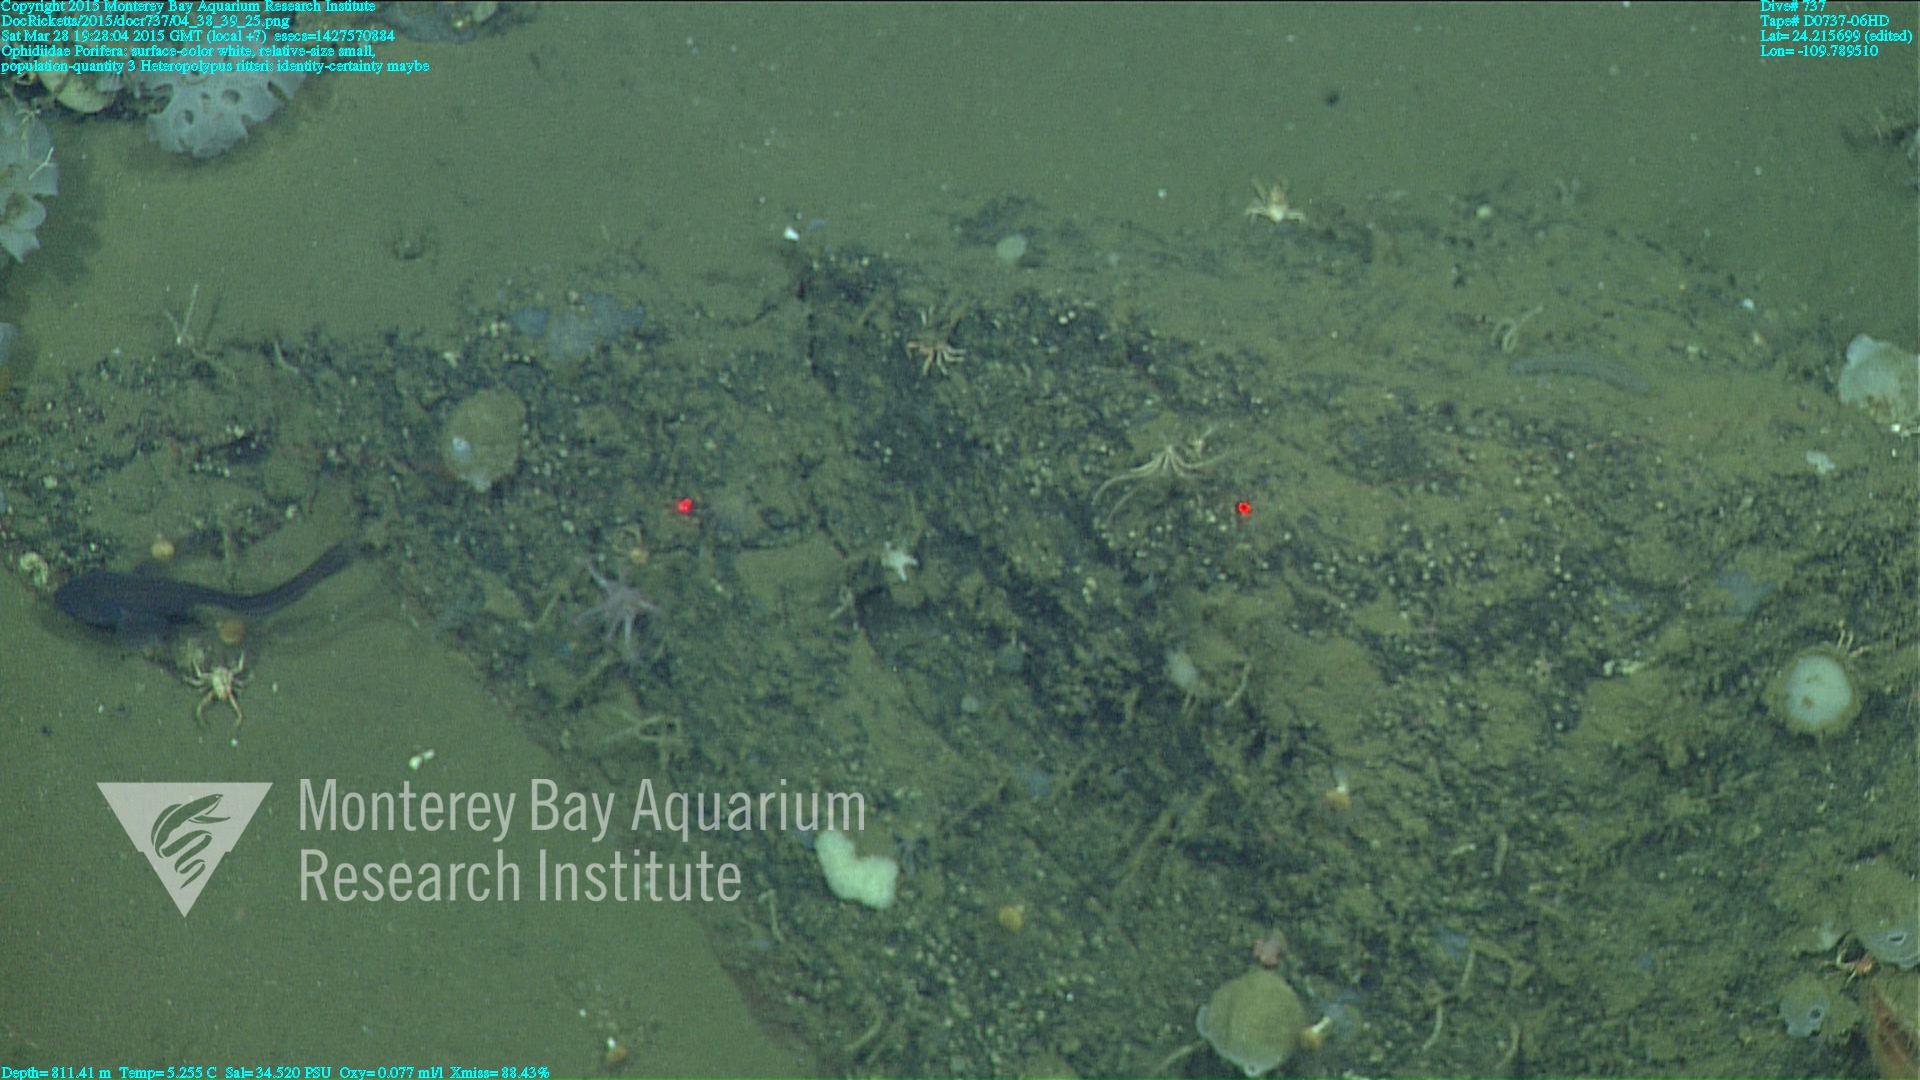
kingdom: Animalia
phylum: Cnidaria
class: Anthozoa
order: Scleralcyonacea
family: Coralliidae
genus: Heteropolypus
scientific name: Heteropolypus ritteri
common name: Ritter's soft coral
